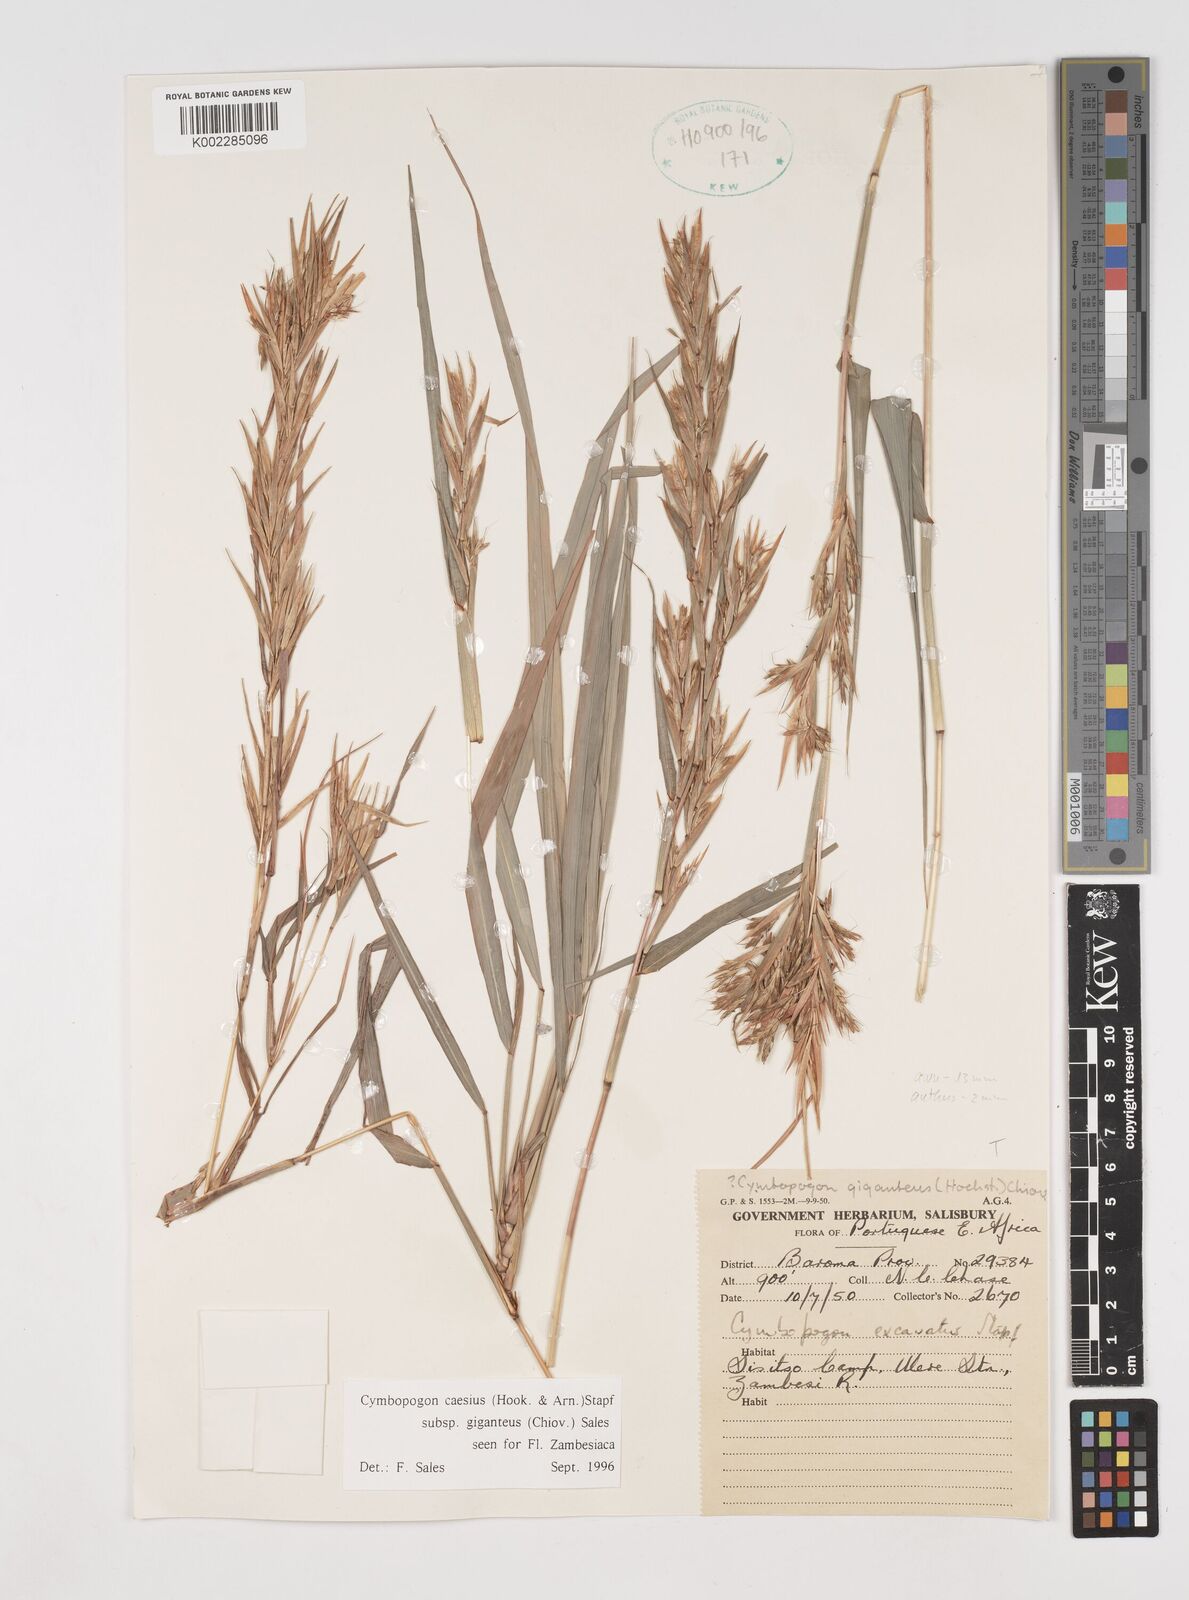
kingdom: Plantae
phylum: Tracheophyta
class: Liliopsida
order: Poales
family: Poaceae
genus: Cymbopogon
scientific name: Cymbopogon giganteus
